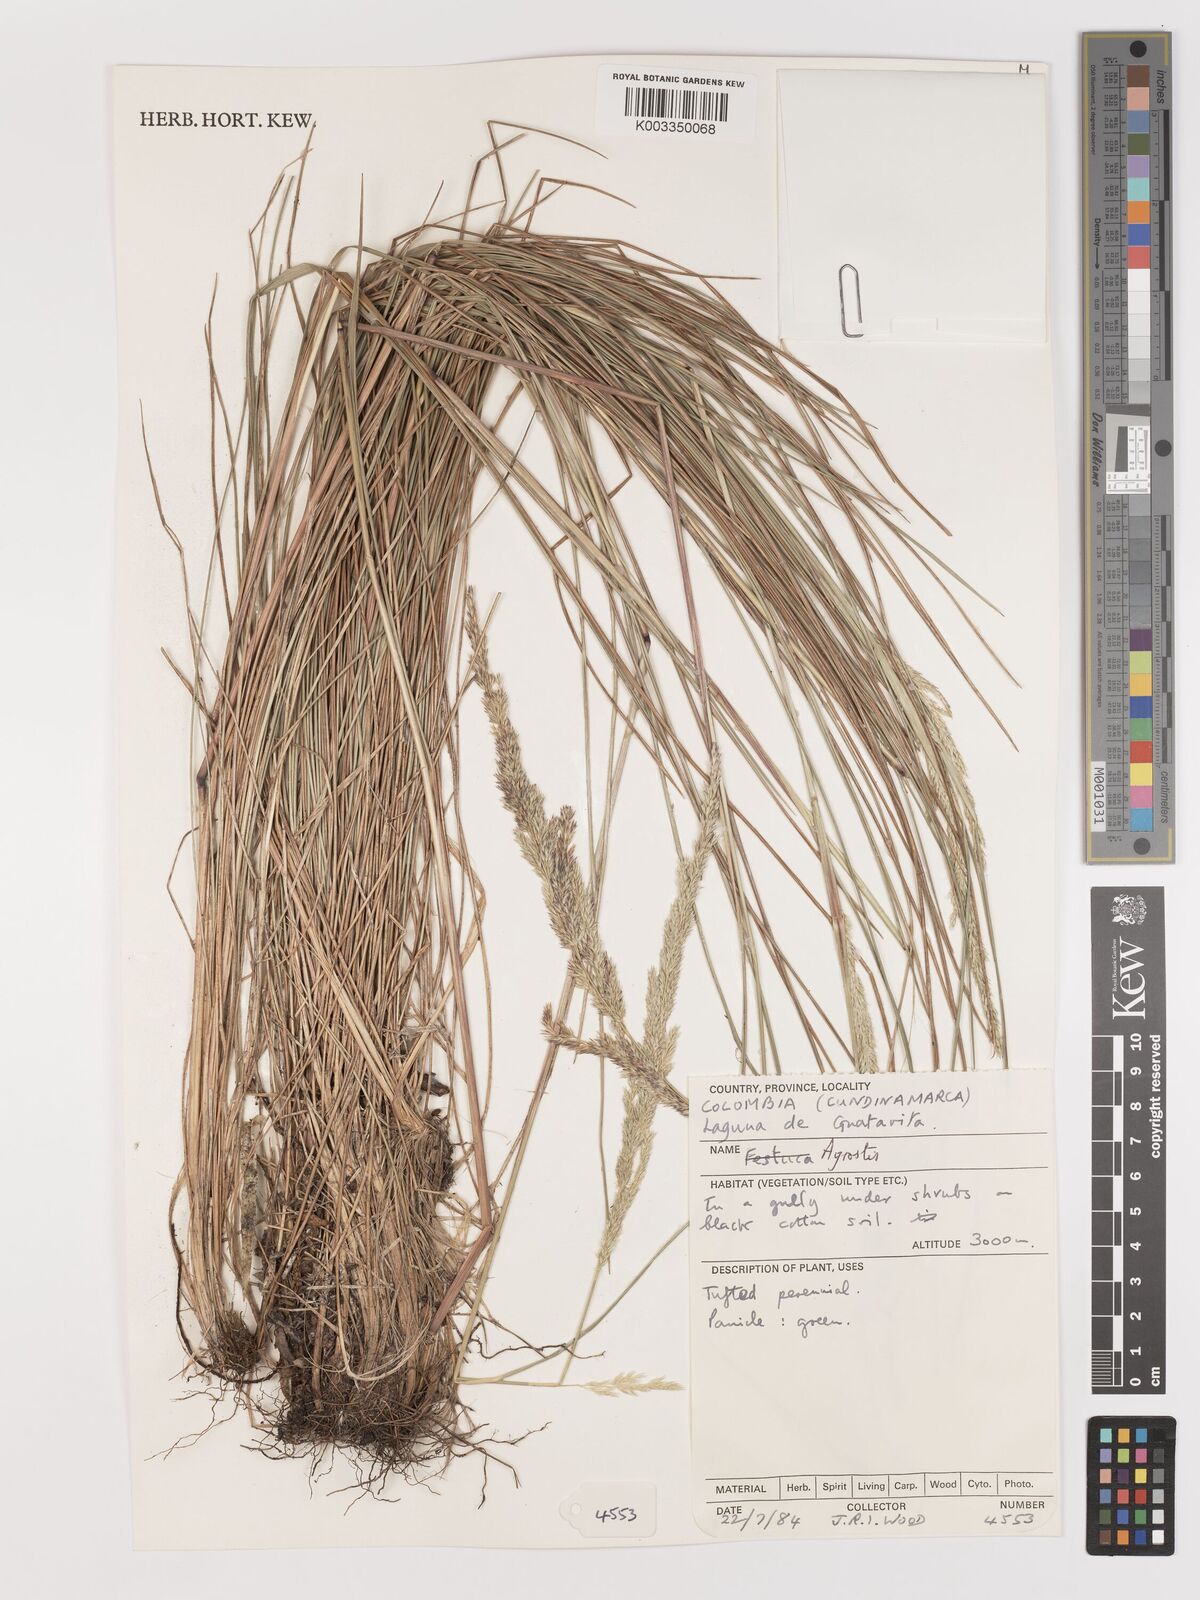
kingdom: Plantae
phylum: Tracheophyta
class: Liliopsida
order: Poales
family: Poaceae
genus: Agrostis
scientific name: Agrostis
